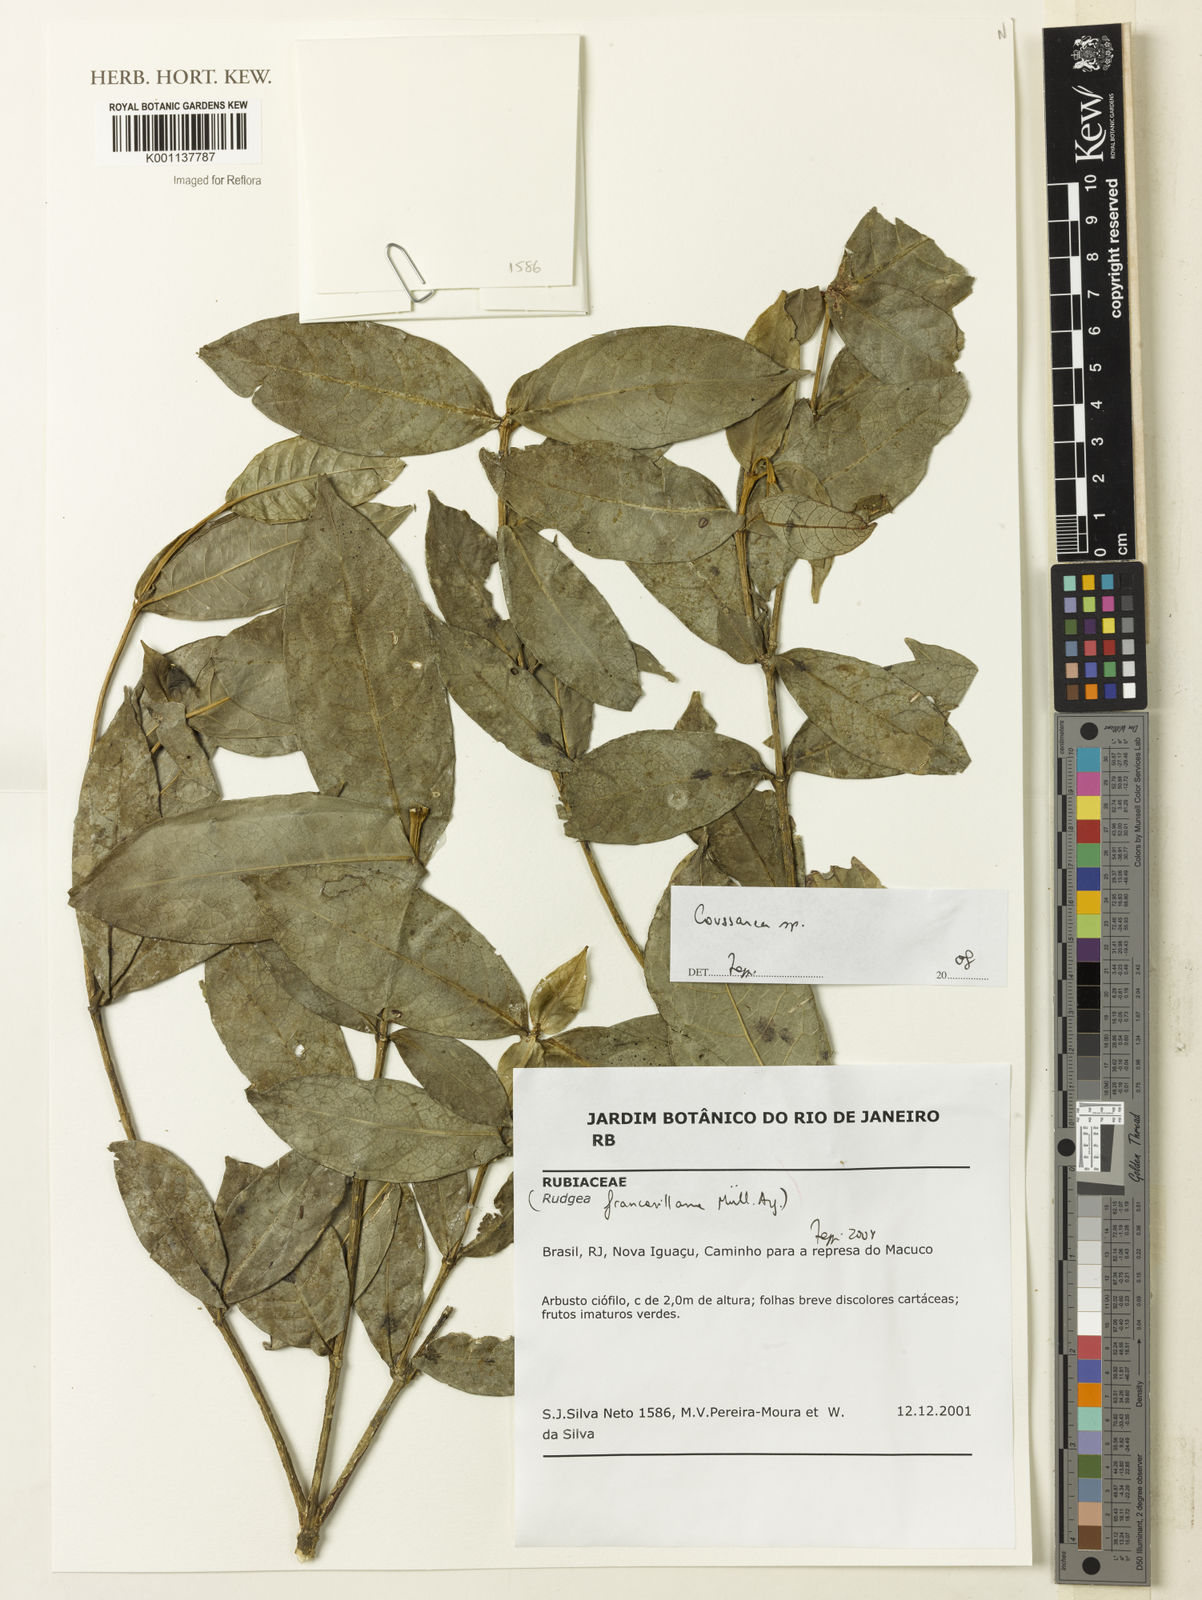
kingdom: Plantae
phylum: Tracheophyta
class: Magnoliopsida
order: Gentianales
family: Rubiaceae
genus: Coussarea
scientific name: Coussarea
